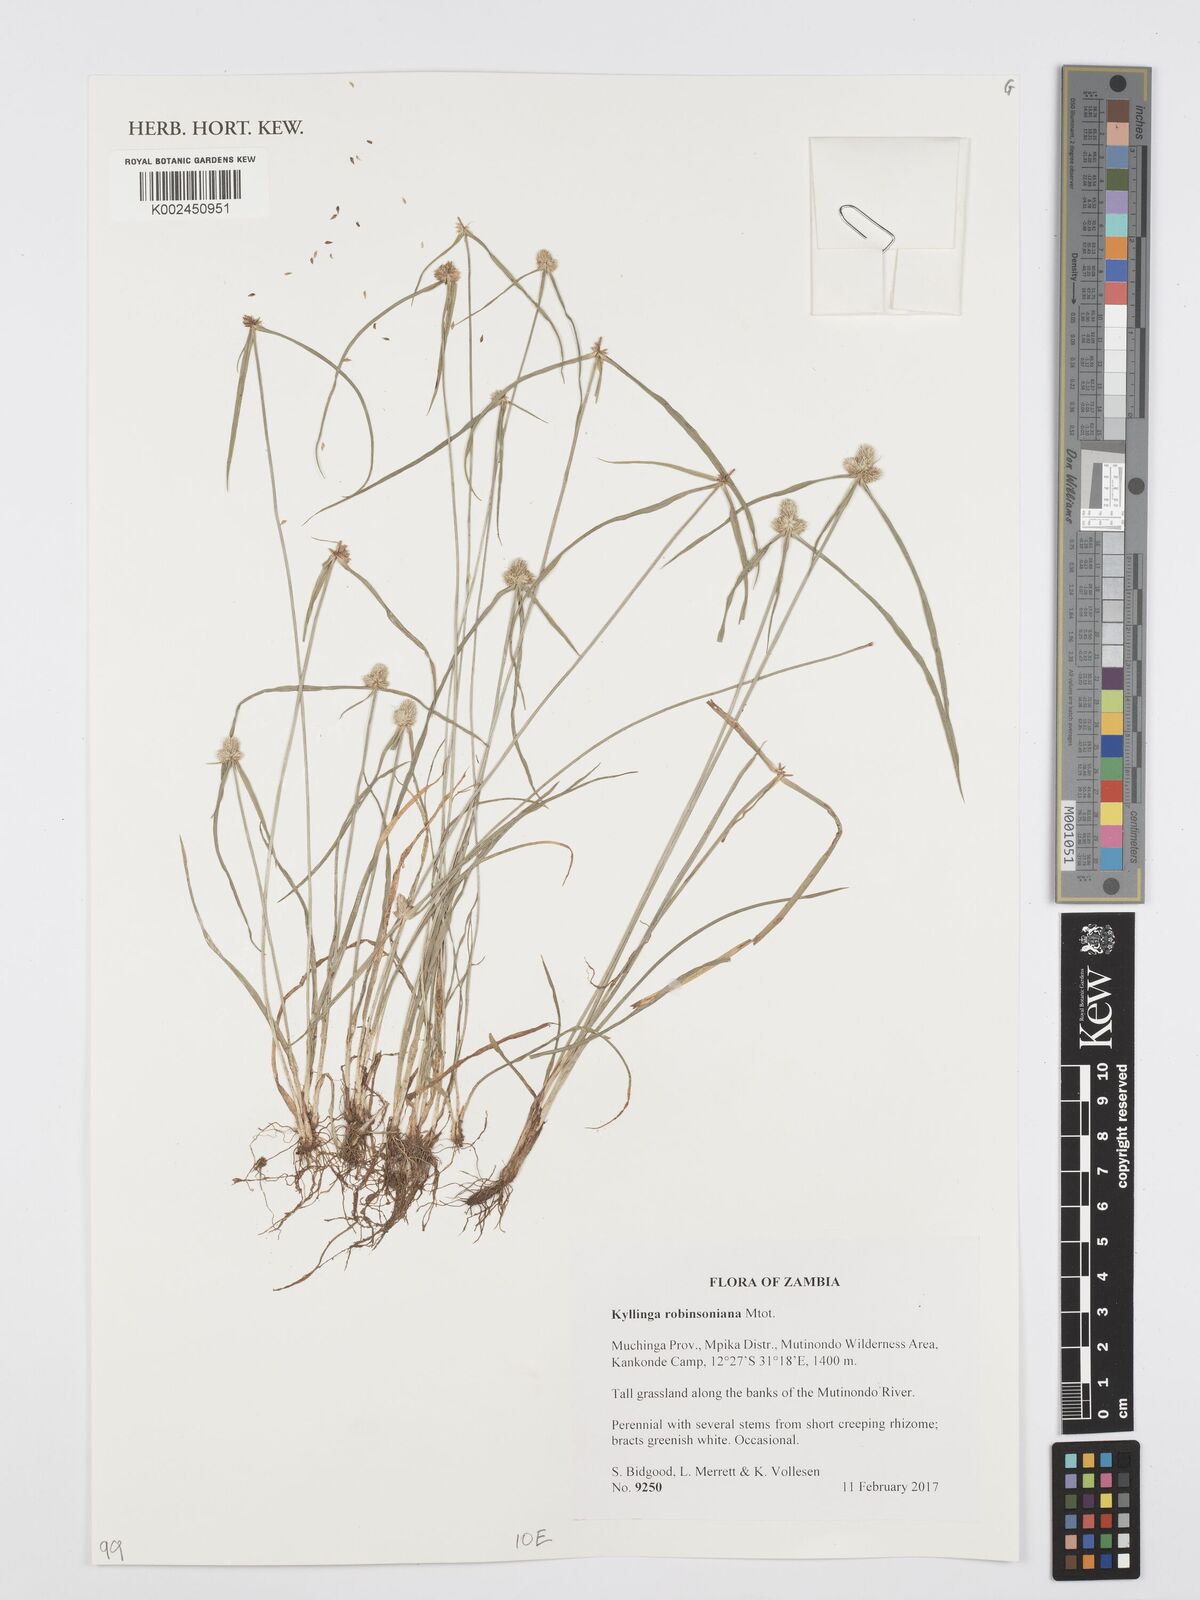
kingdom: Plantae
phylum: Tracheophyta
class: Liliopsida
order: Poales
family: Cyperaceae
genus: Cyperus
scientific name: Cyperus robinsonianus
